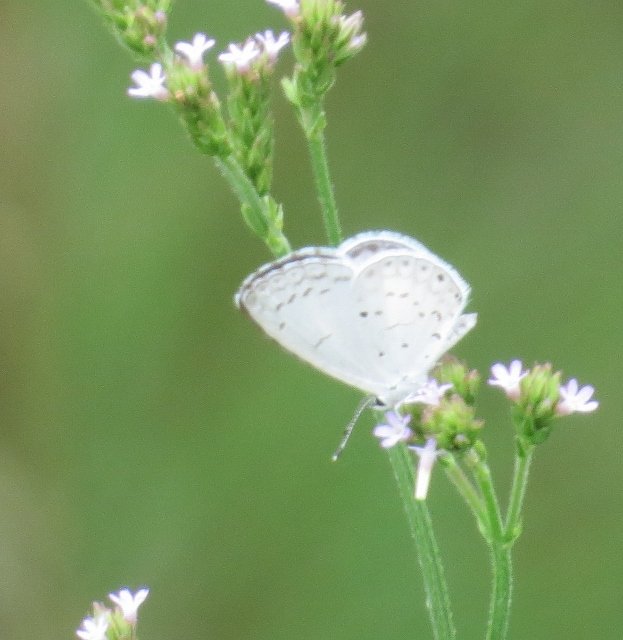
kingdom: Animalia
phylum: Arthropoda
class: Insecta
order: Lepidoptera
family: Lycaenidae
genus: Cyaniris
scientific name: Cyaniris neglecta
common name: Summer Azure
